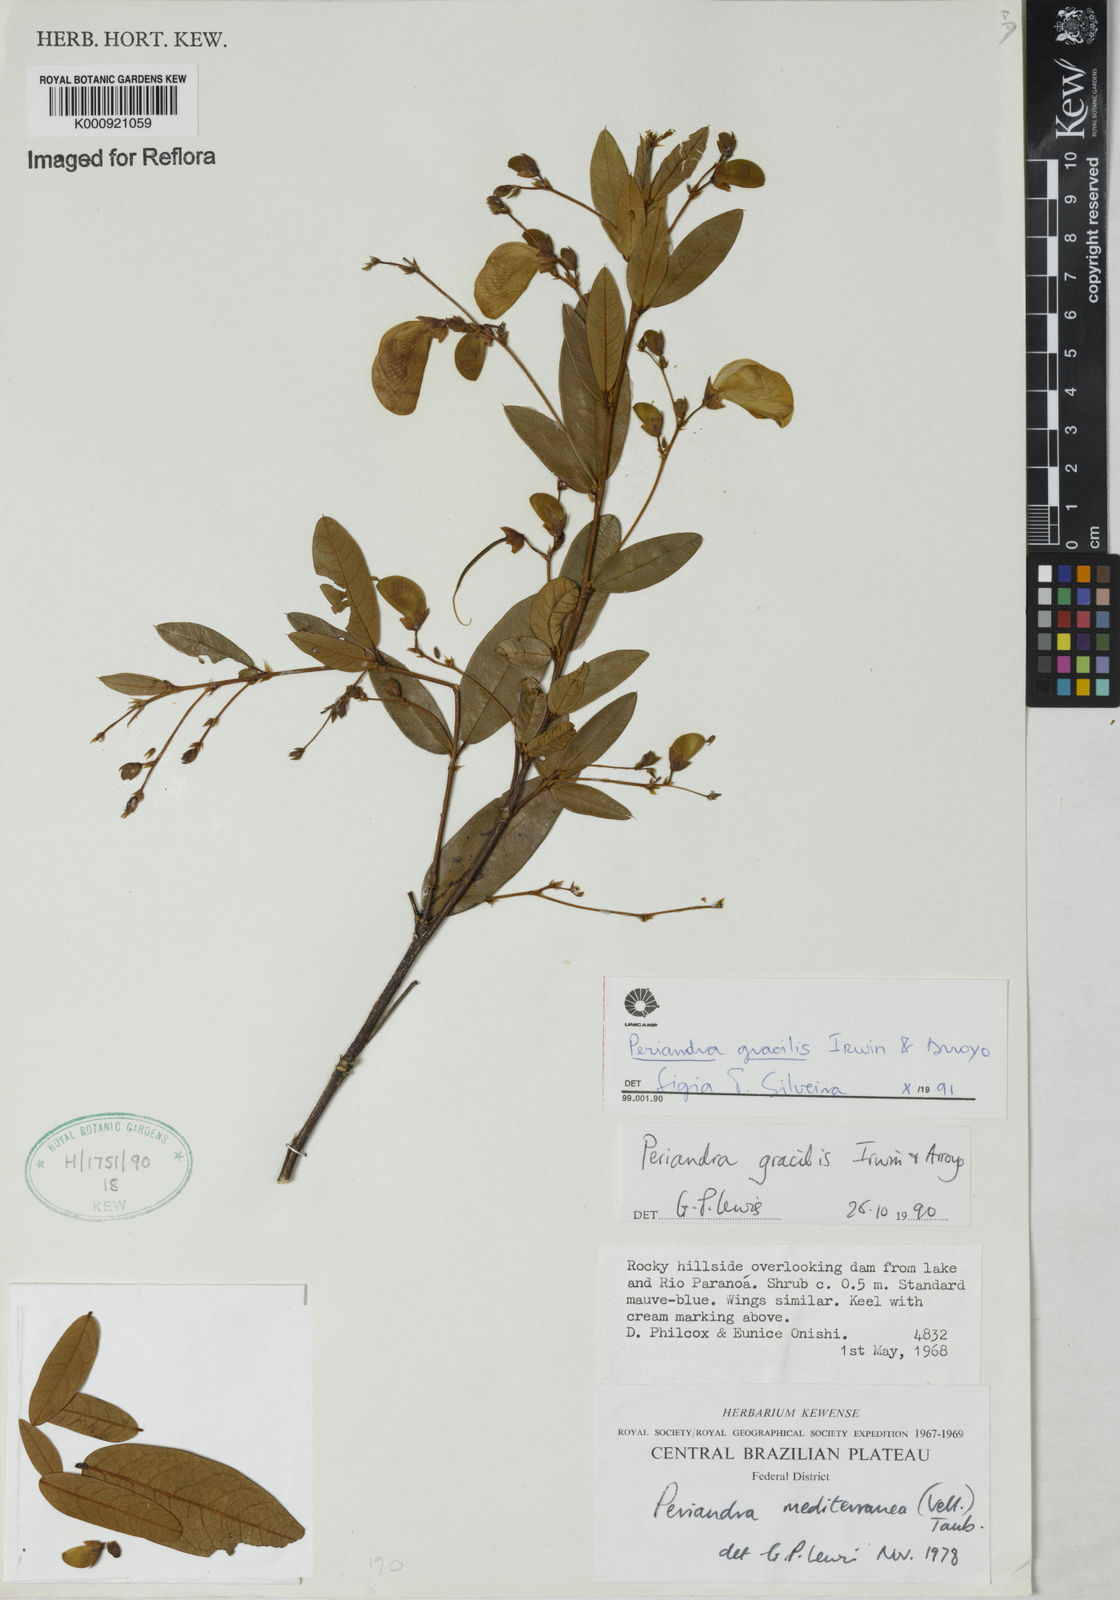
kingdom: Plantae
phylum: Tracheophyta
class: Magnoliopsida
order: Fabales
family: Fabaceae
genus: Periandra
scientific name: Periandra gracilis
